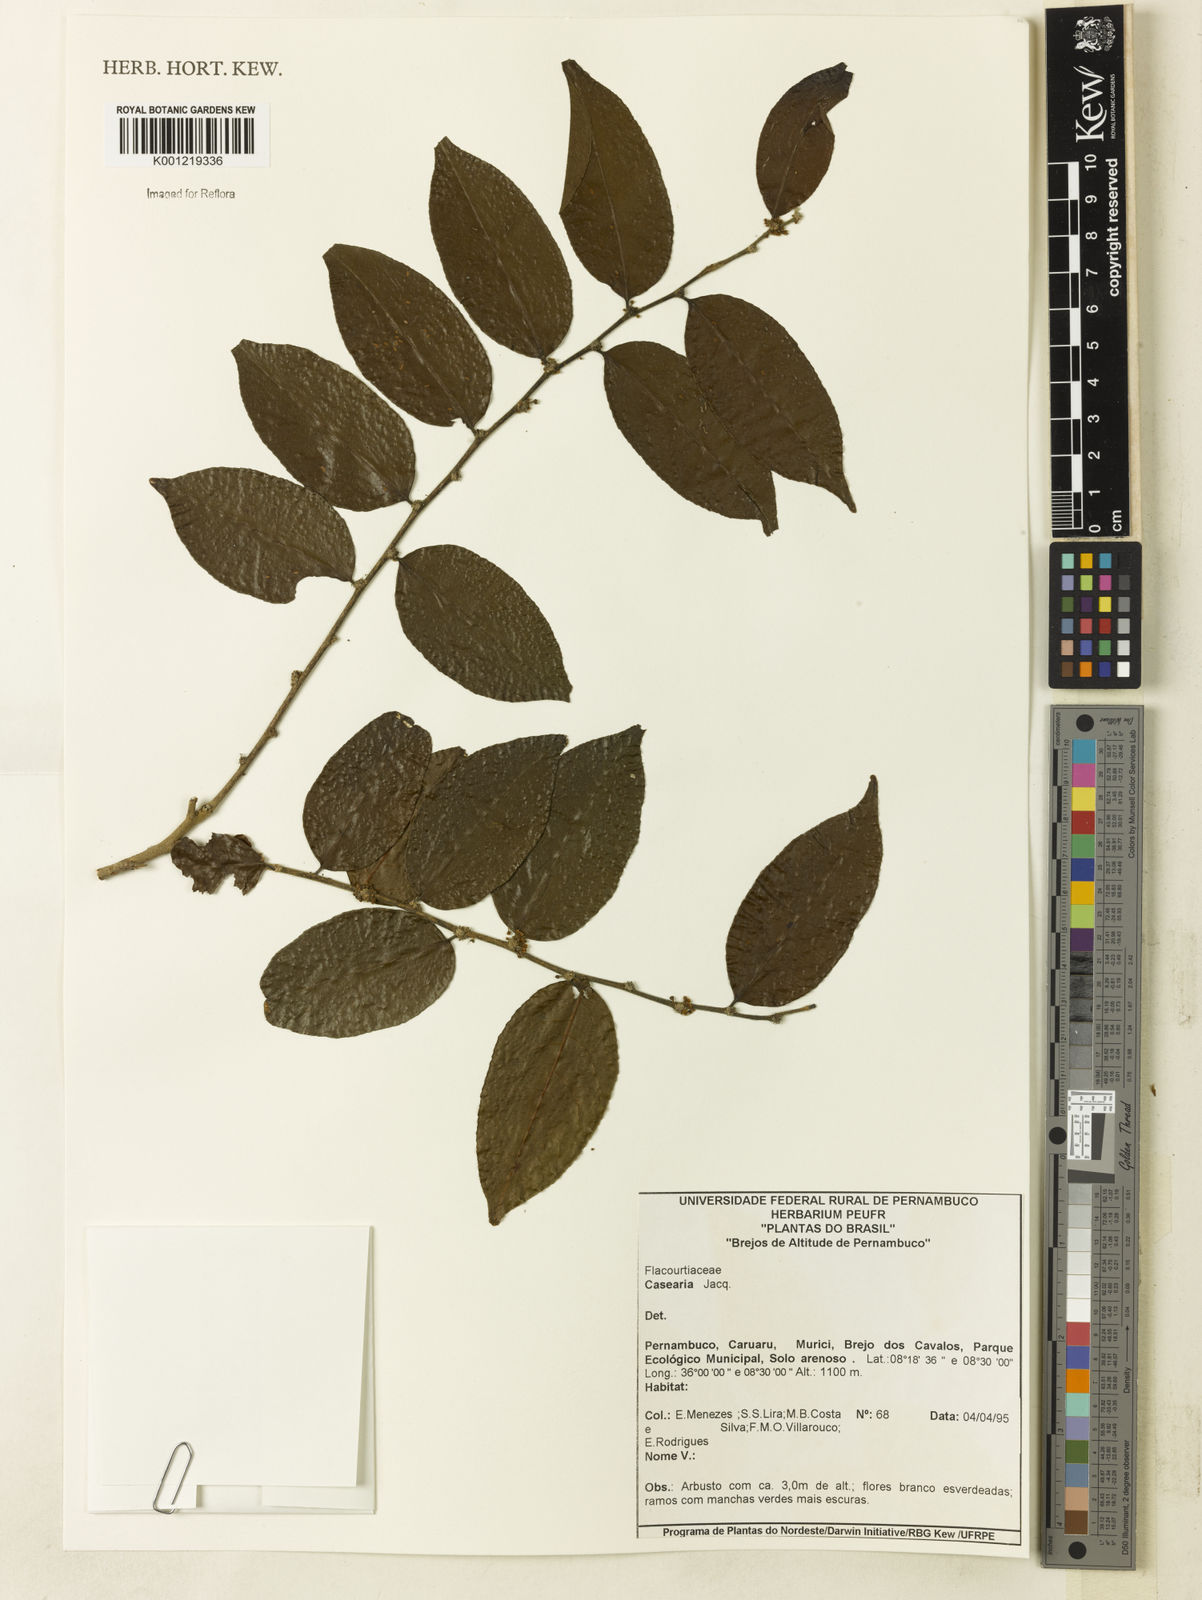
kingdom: Plantae
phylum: Tracheophyta
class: Magnoliopsida
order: Malpighiales
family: Salicaceae
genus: Casearia
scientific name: Casearia
